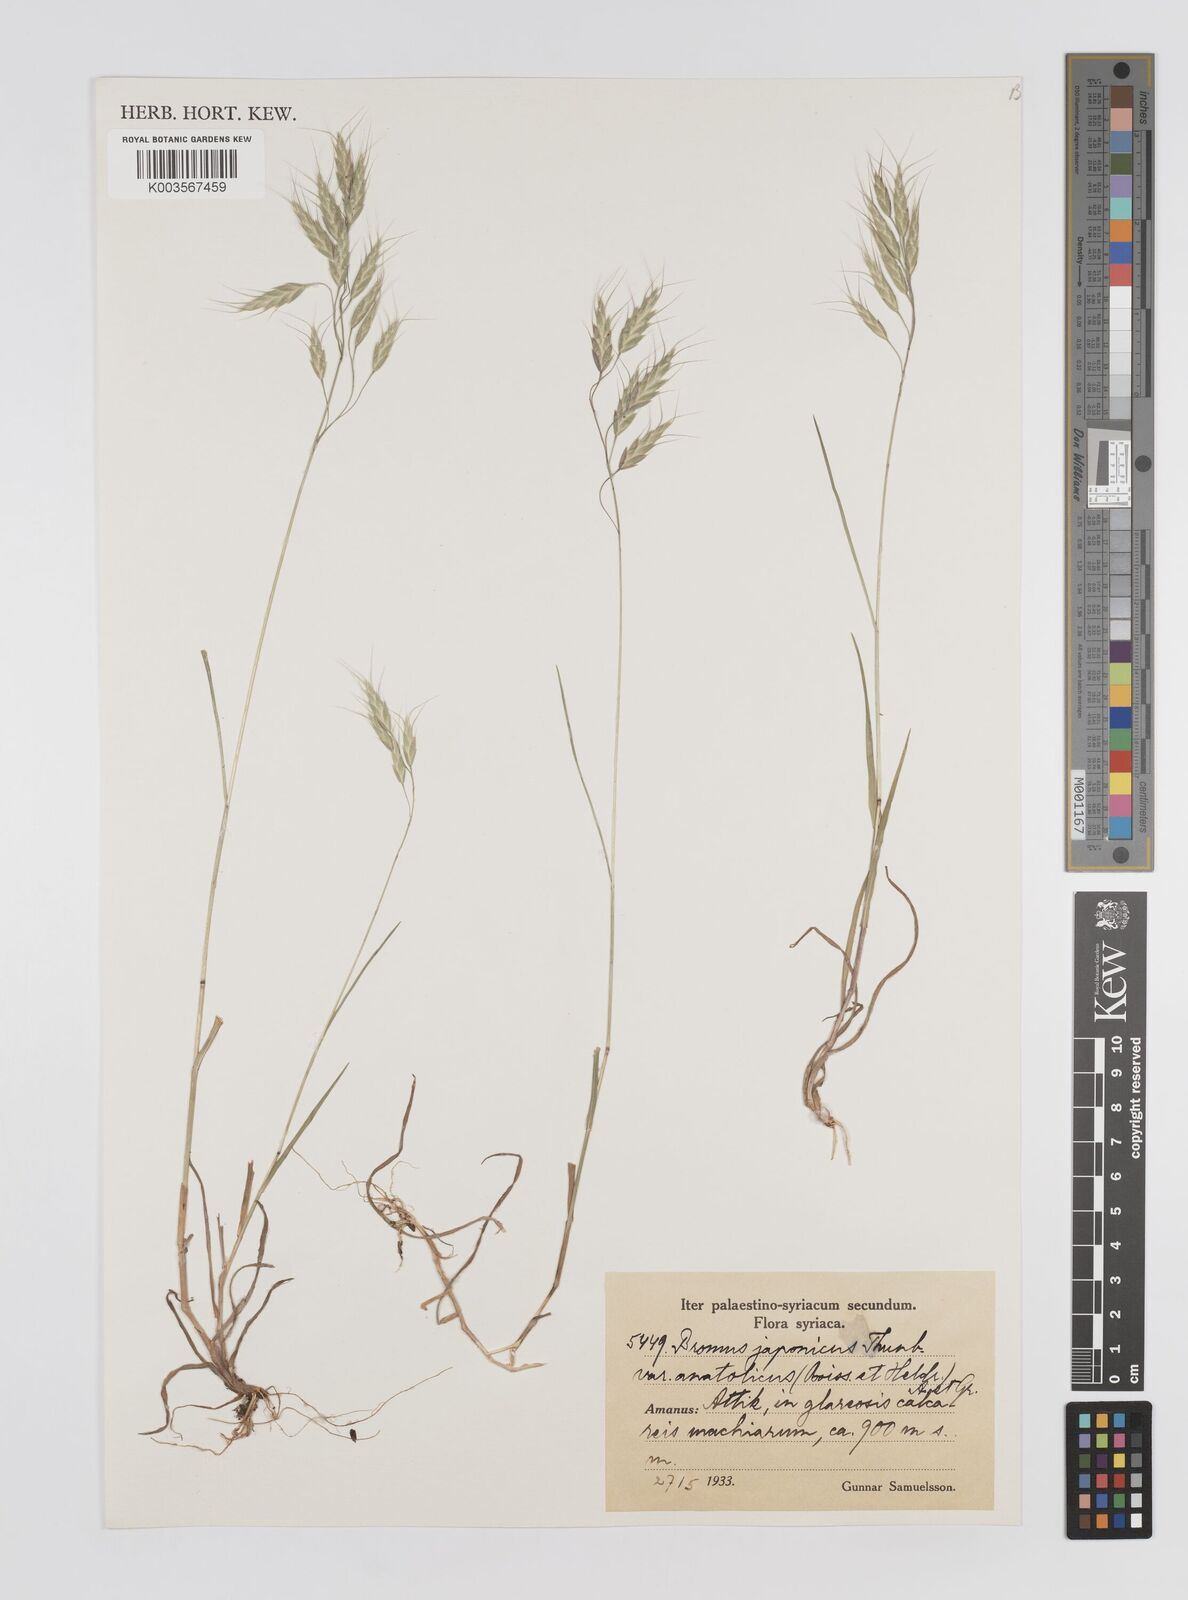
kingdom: Plantae
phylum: Tracheophyta
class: Liliopsida
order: Poales
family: Poaceae
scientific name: Poaceae
